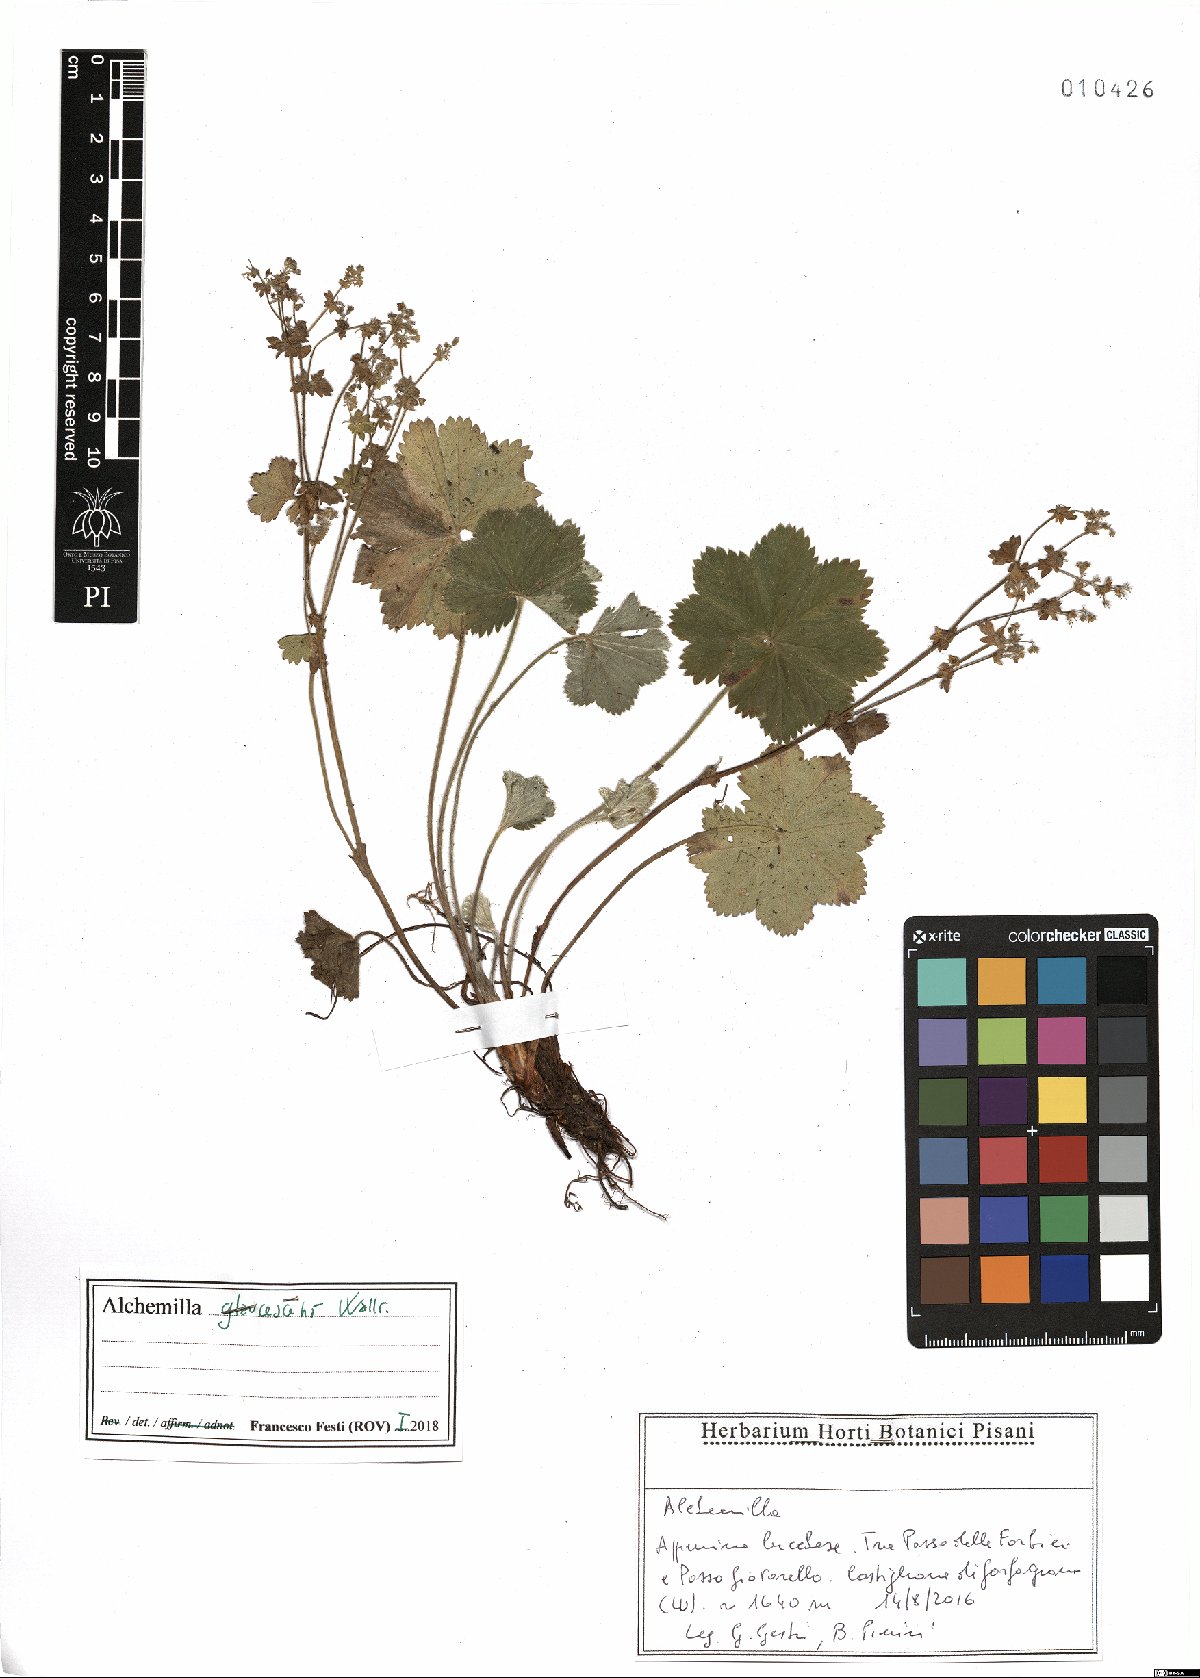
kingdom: Plantae
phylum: Tracheophyta
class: Magnoliopsida
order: Rosales
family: Rosaceae
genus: Alchemilla
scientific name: Alchemilla glaucescens
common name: Silky lady's mantle
